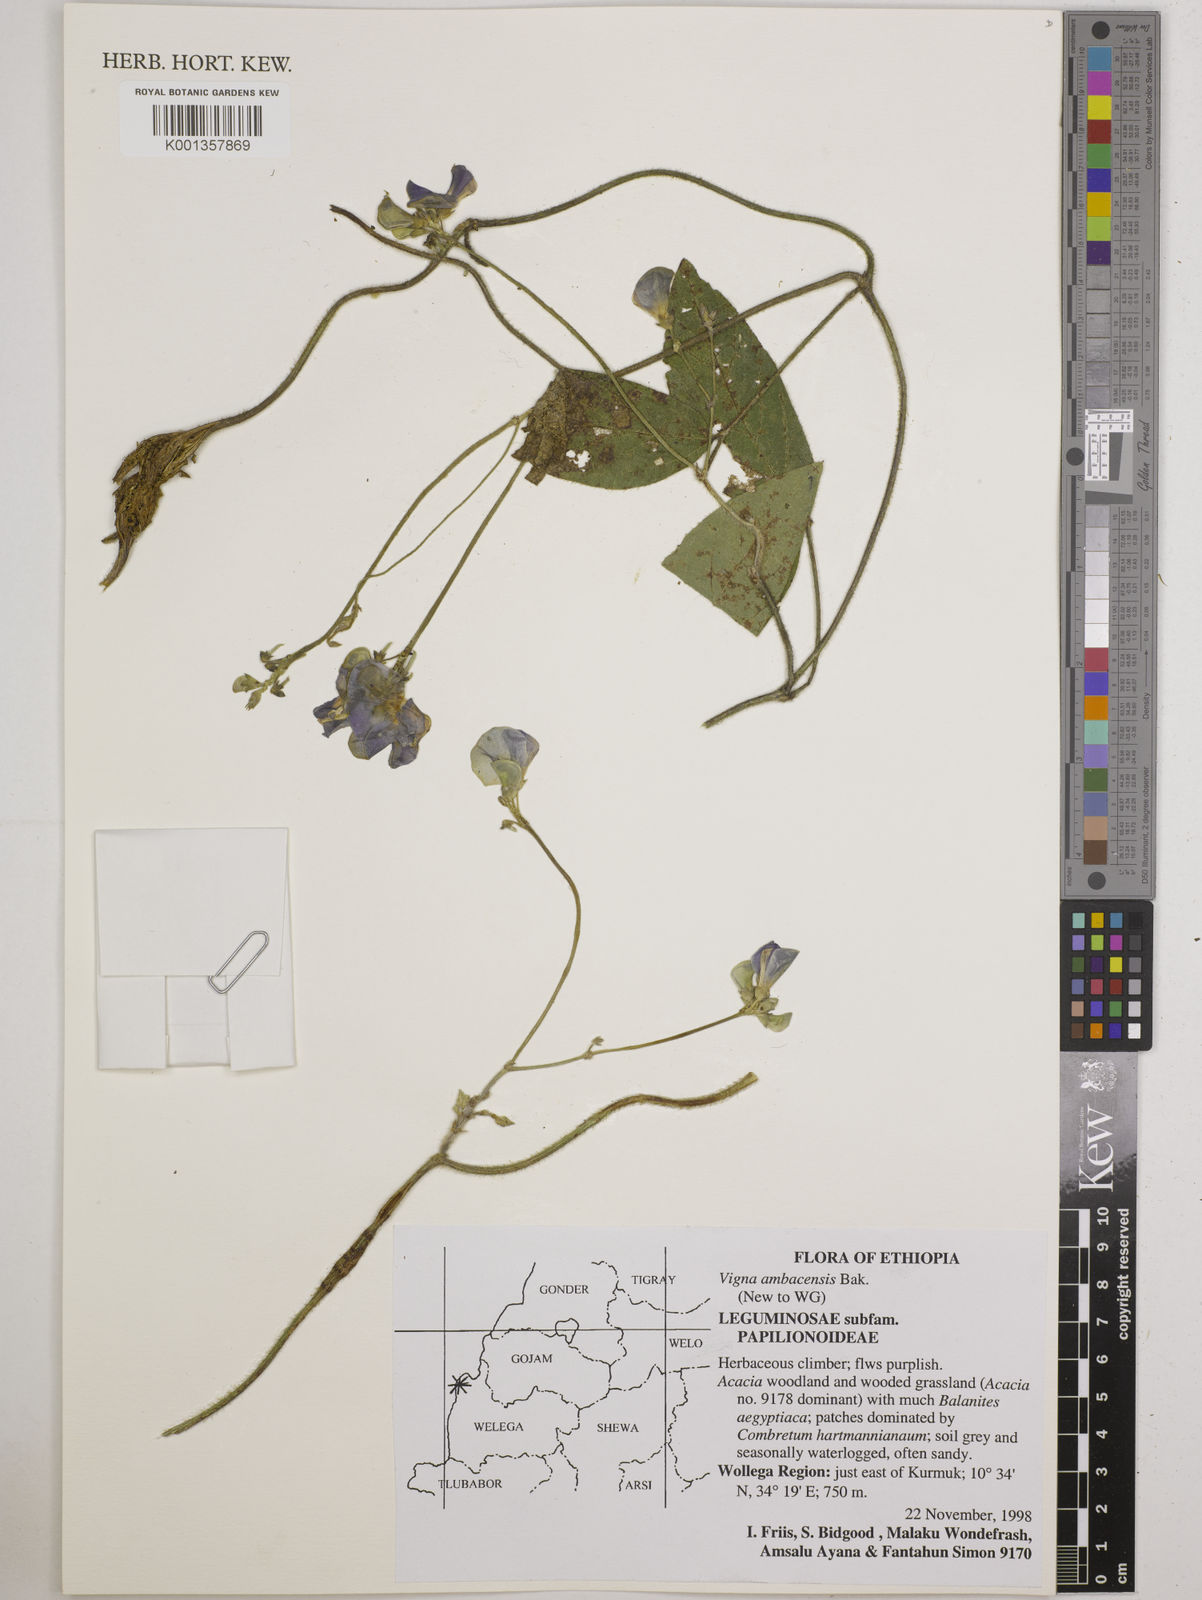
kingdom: Plantae
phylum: Tracheophyta
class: Magnoliopsida
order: Fabales
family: Fabaceae
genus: Vigna
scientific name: Vigna ambacensis
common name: Tsarkiyan zomo
